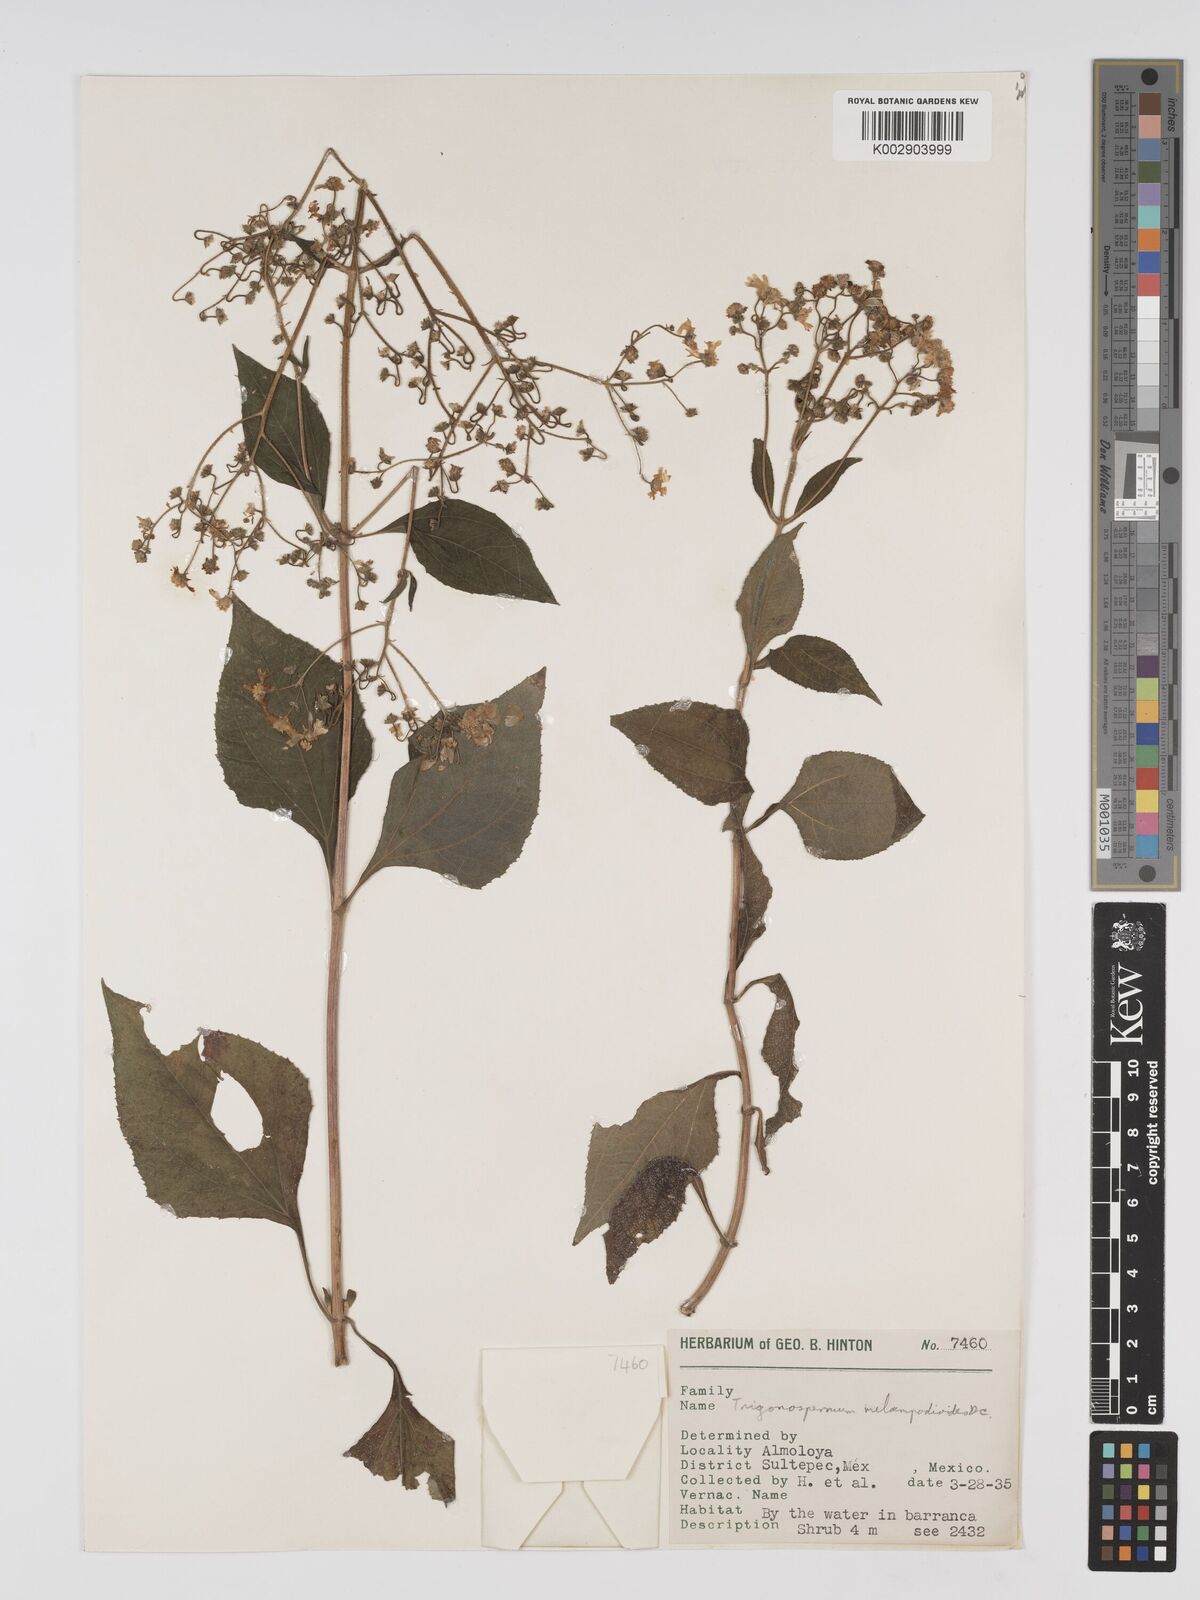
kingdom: Plantae
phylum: Tracheophyta
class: Magnoliopsida
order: Asterales
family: Asteraceae
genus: Trigonospermum
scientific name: Trigonospermum melampodioides
